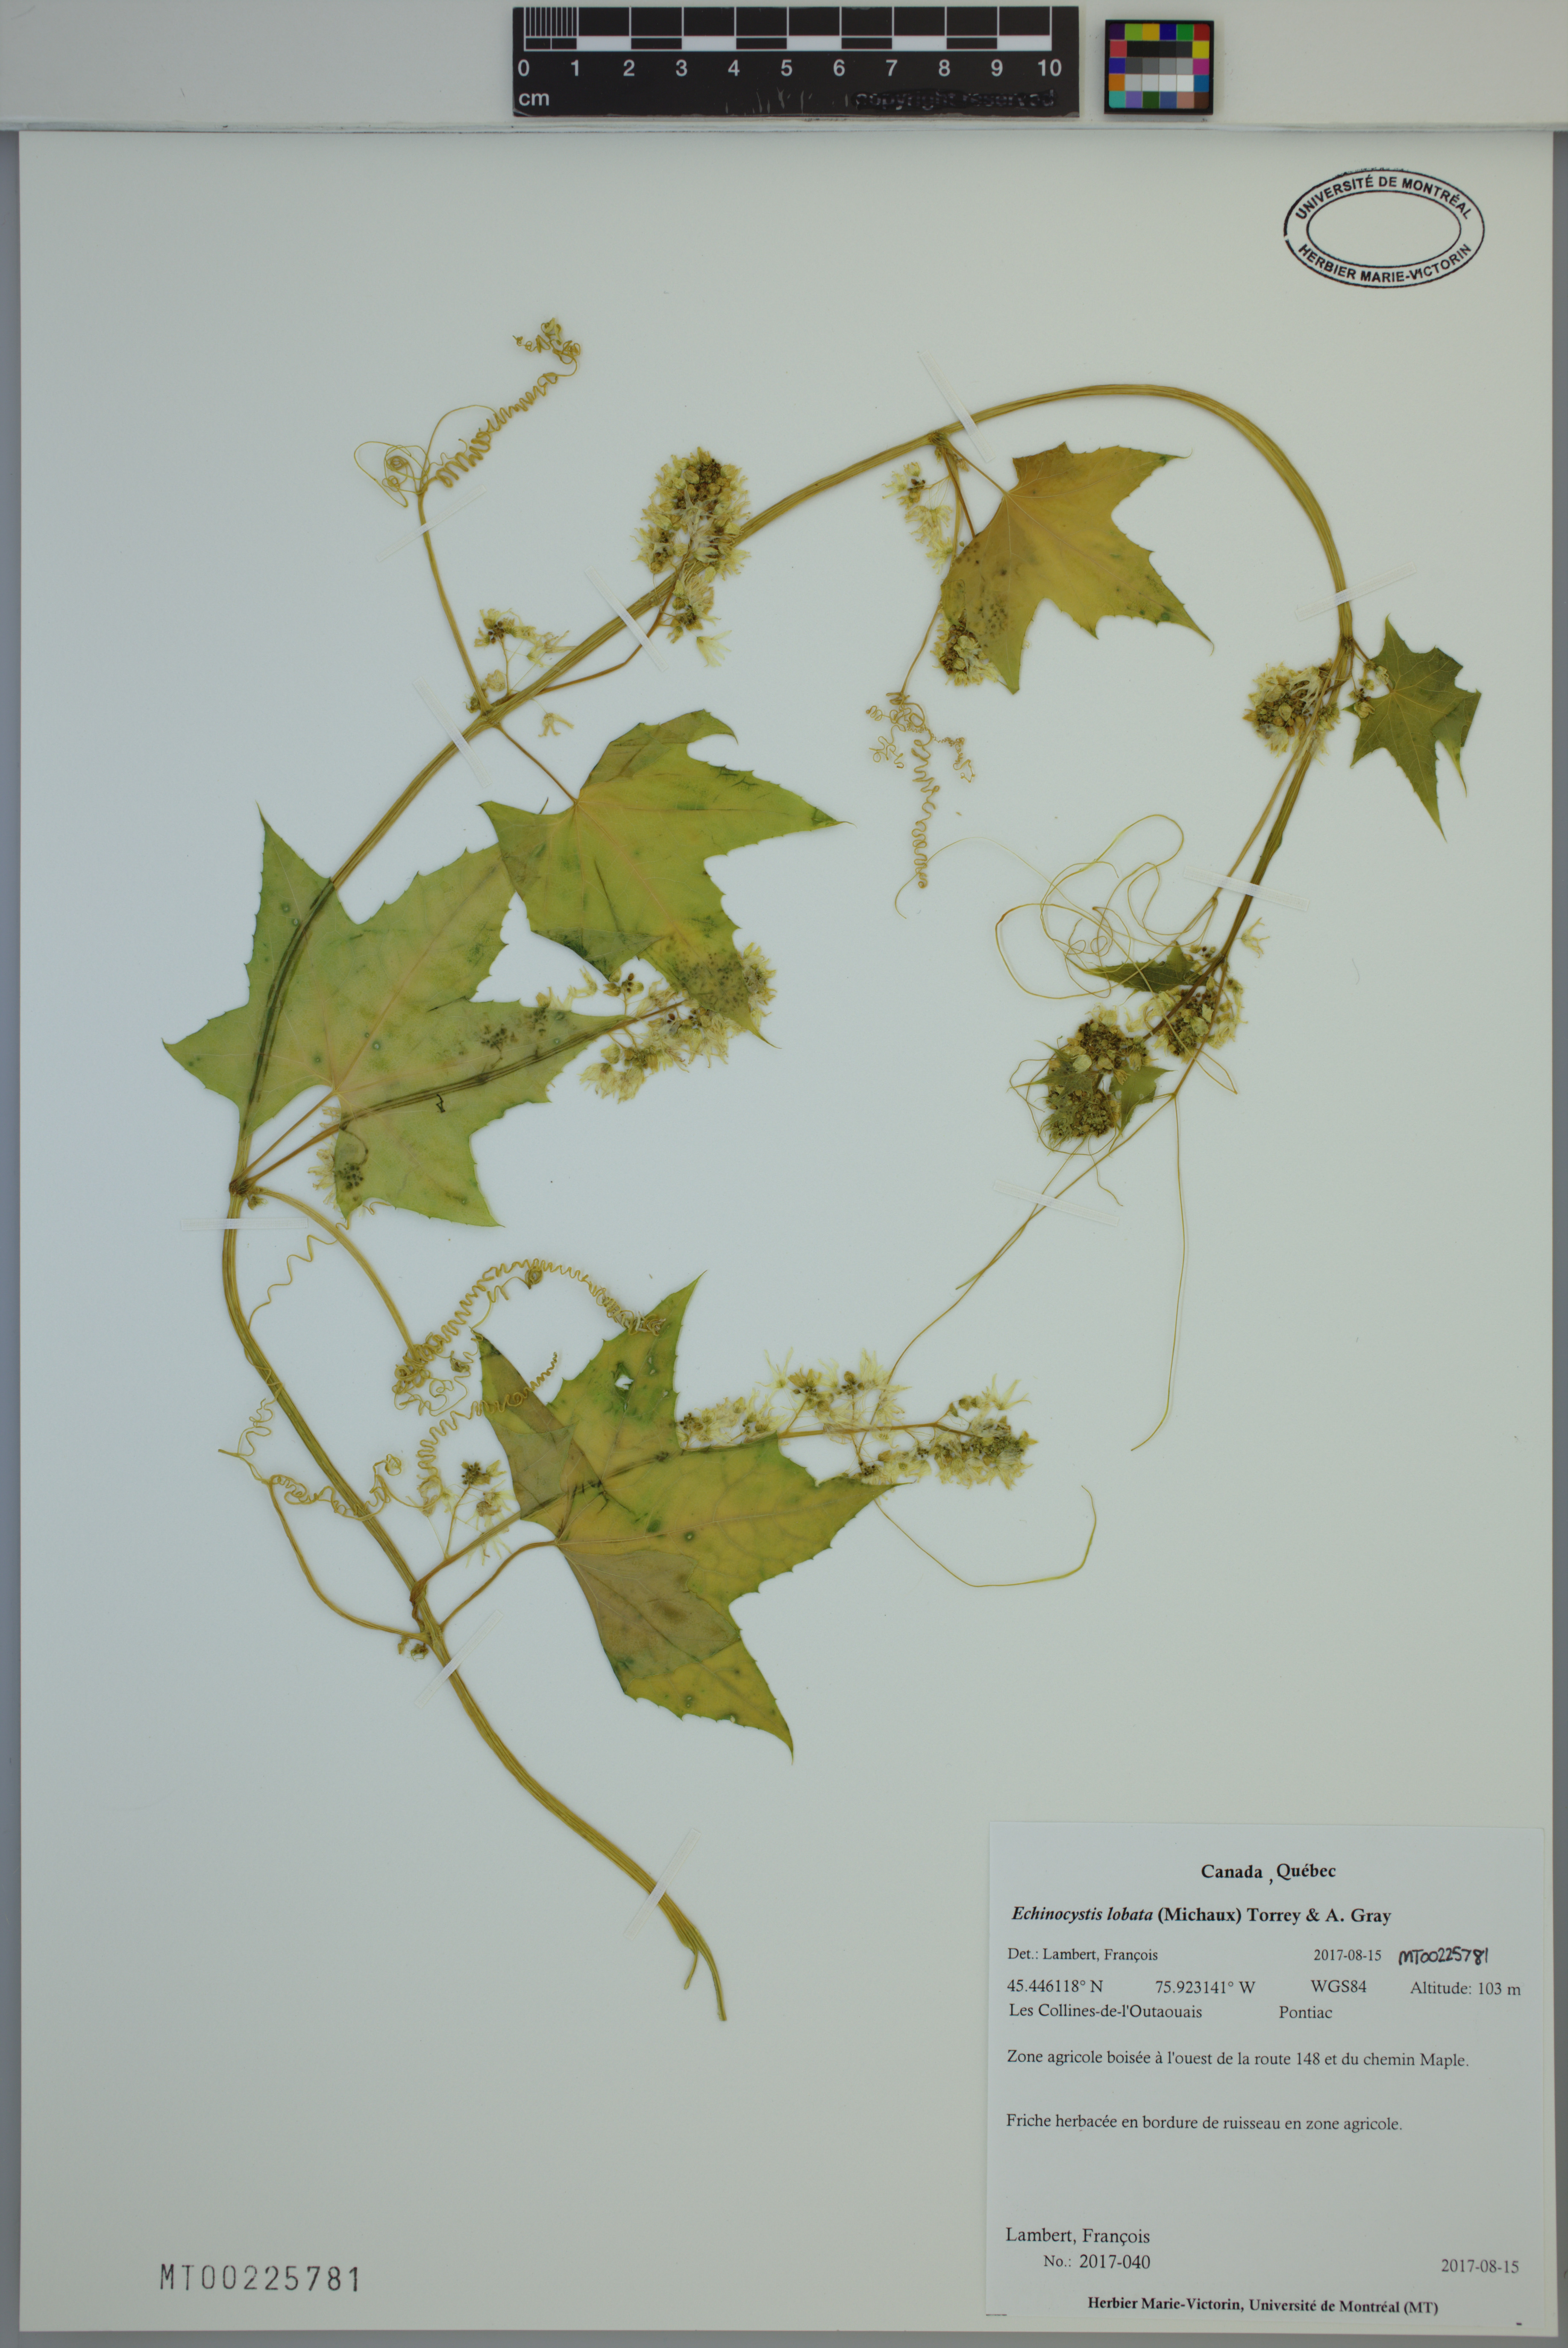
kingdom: Plantae
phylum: Tracheophyta
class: Magnoliopsida
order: Cucurbitales
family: Cucurbitaceae
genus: Echinocystis
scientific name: Echinocystis lobata
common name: Wild cucumber
